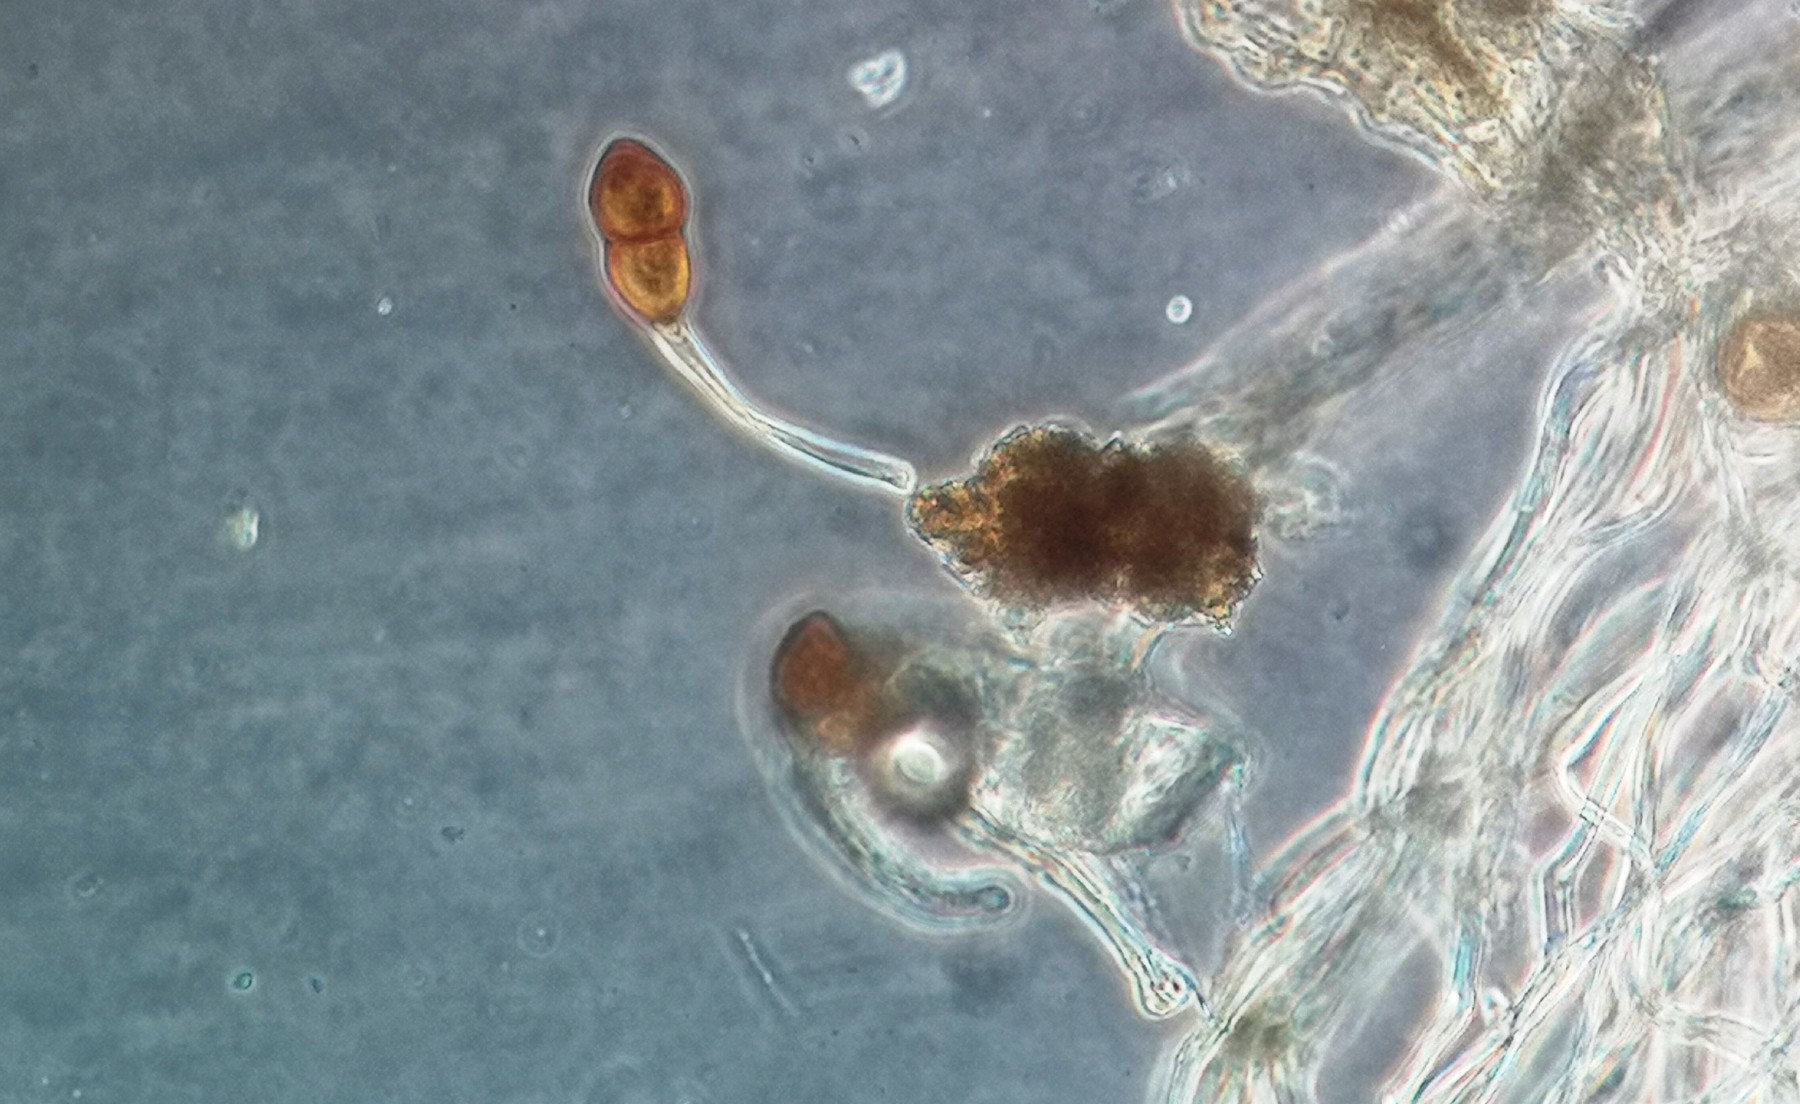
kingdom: Fungi
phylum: Basidiomycota
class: Pucciniomycetes
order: Pucciniales
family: Pucciniaceae
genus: Puccinia
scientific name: Puccinia tanaceti
